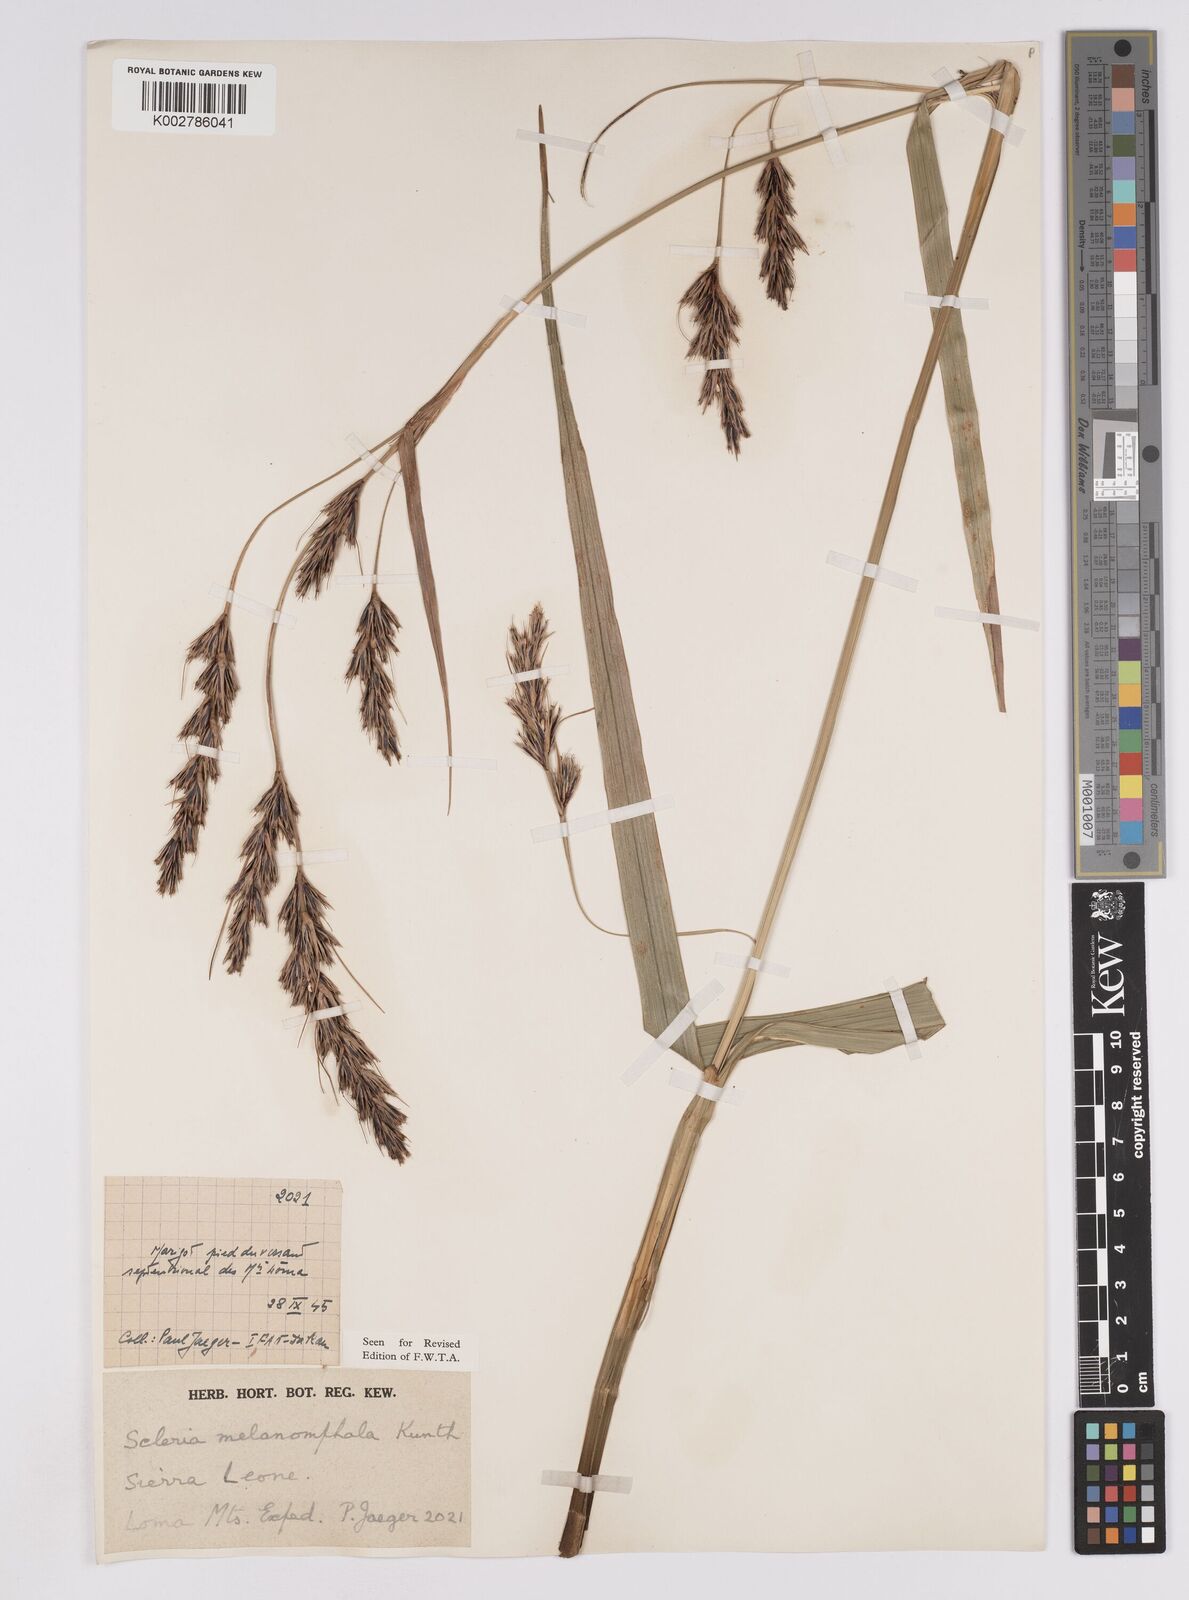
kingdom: Plantae
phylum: Tracheophyta
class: Liliopsida
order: Poales
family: Cyperaceae
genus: Scleria
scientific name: Scleria melanomphala
